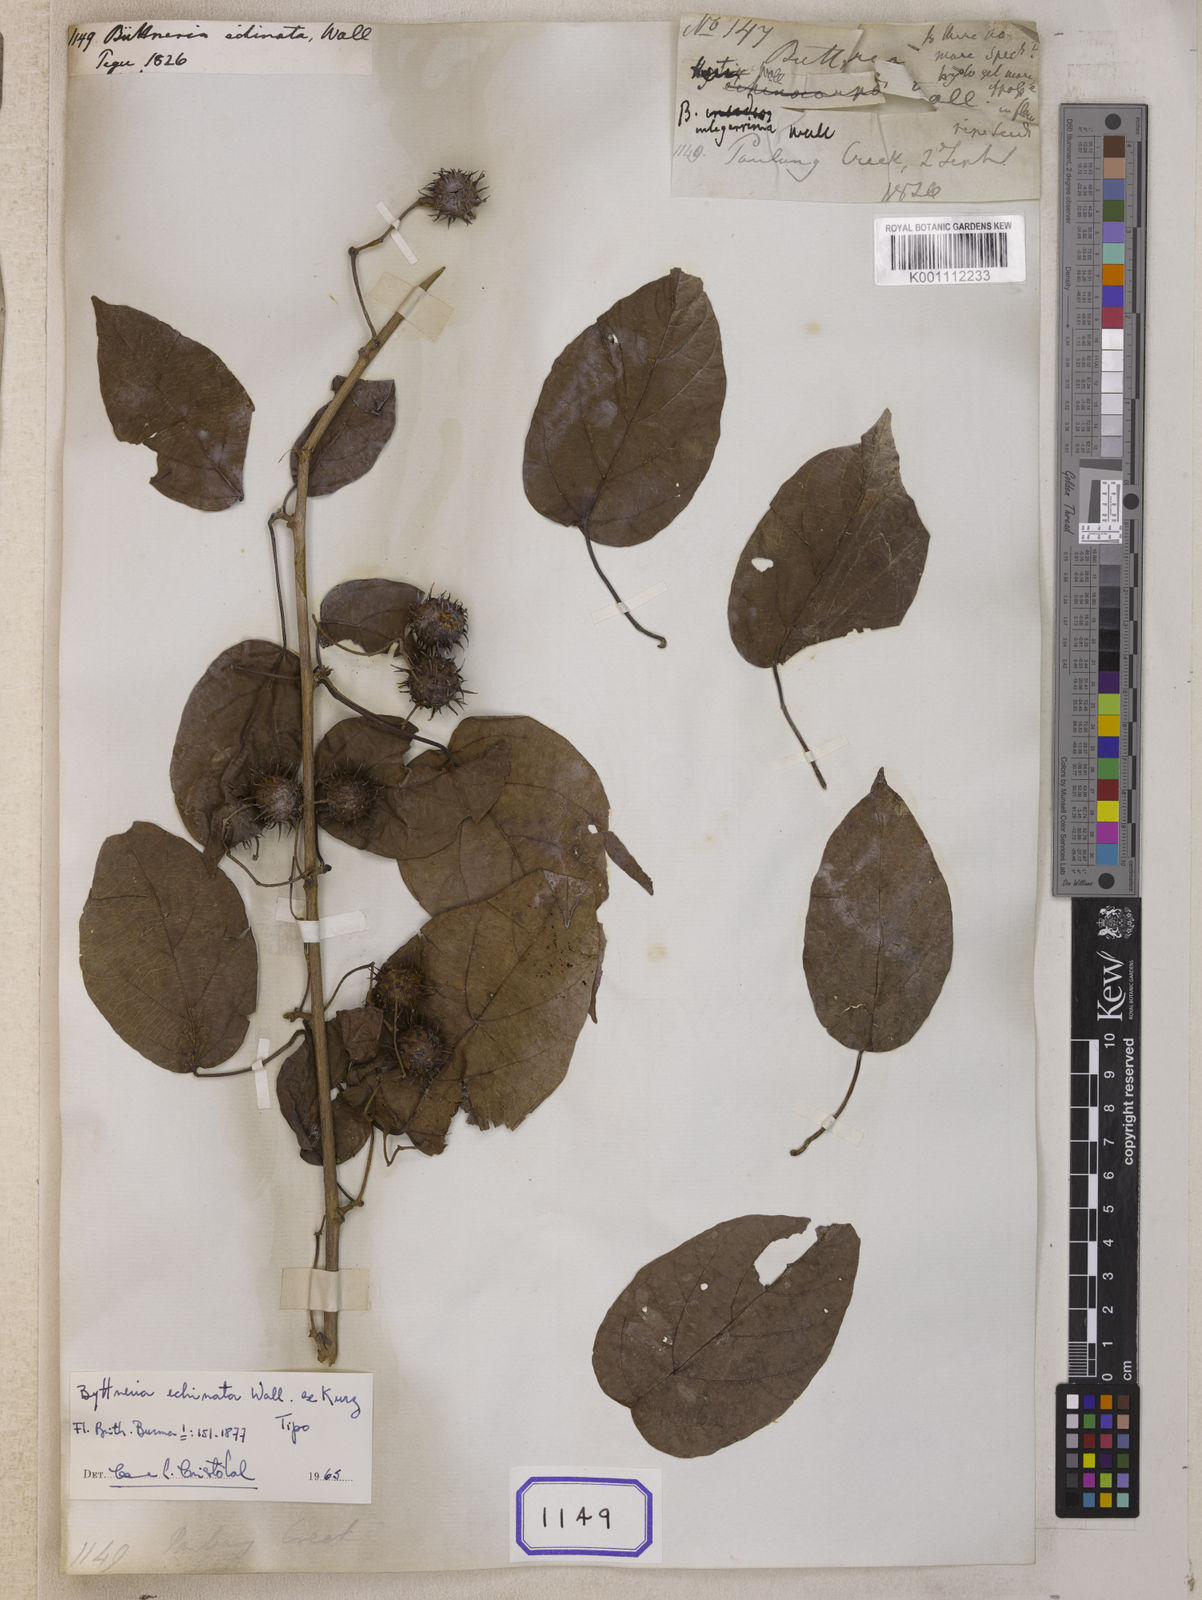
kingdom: Plantae
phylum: Tracheophyta
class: Magnoliopsida
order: Malvales
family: Malvaceae
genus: Byttneria
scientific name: Byttneria
